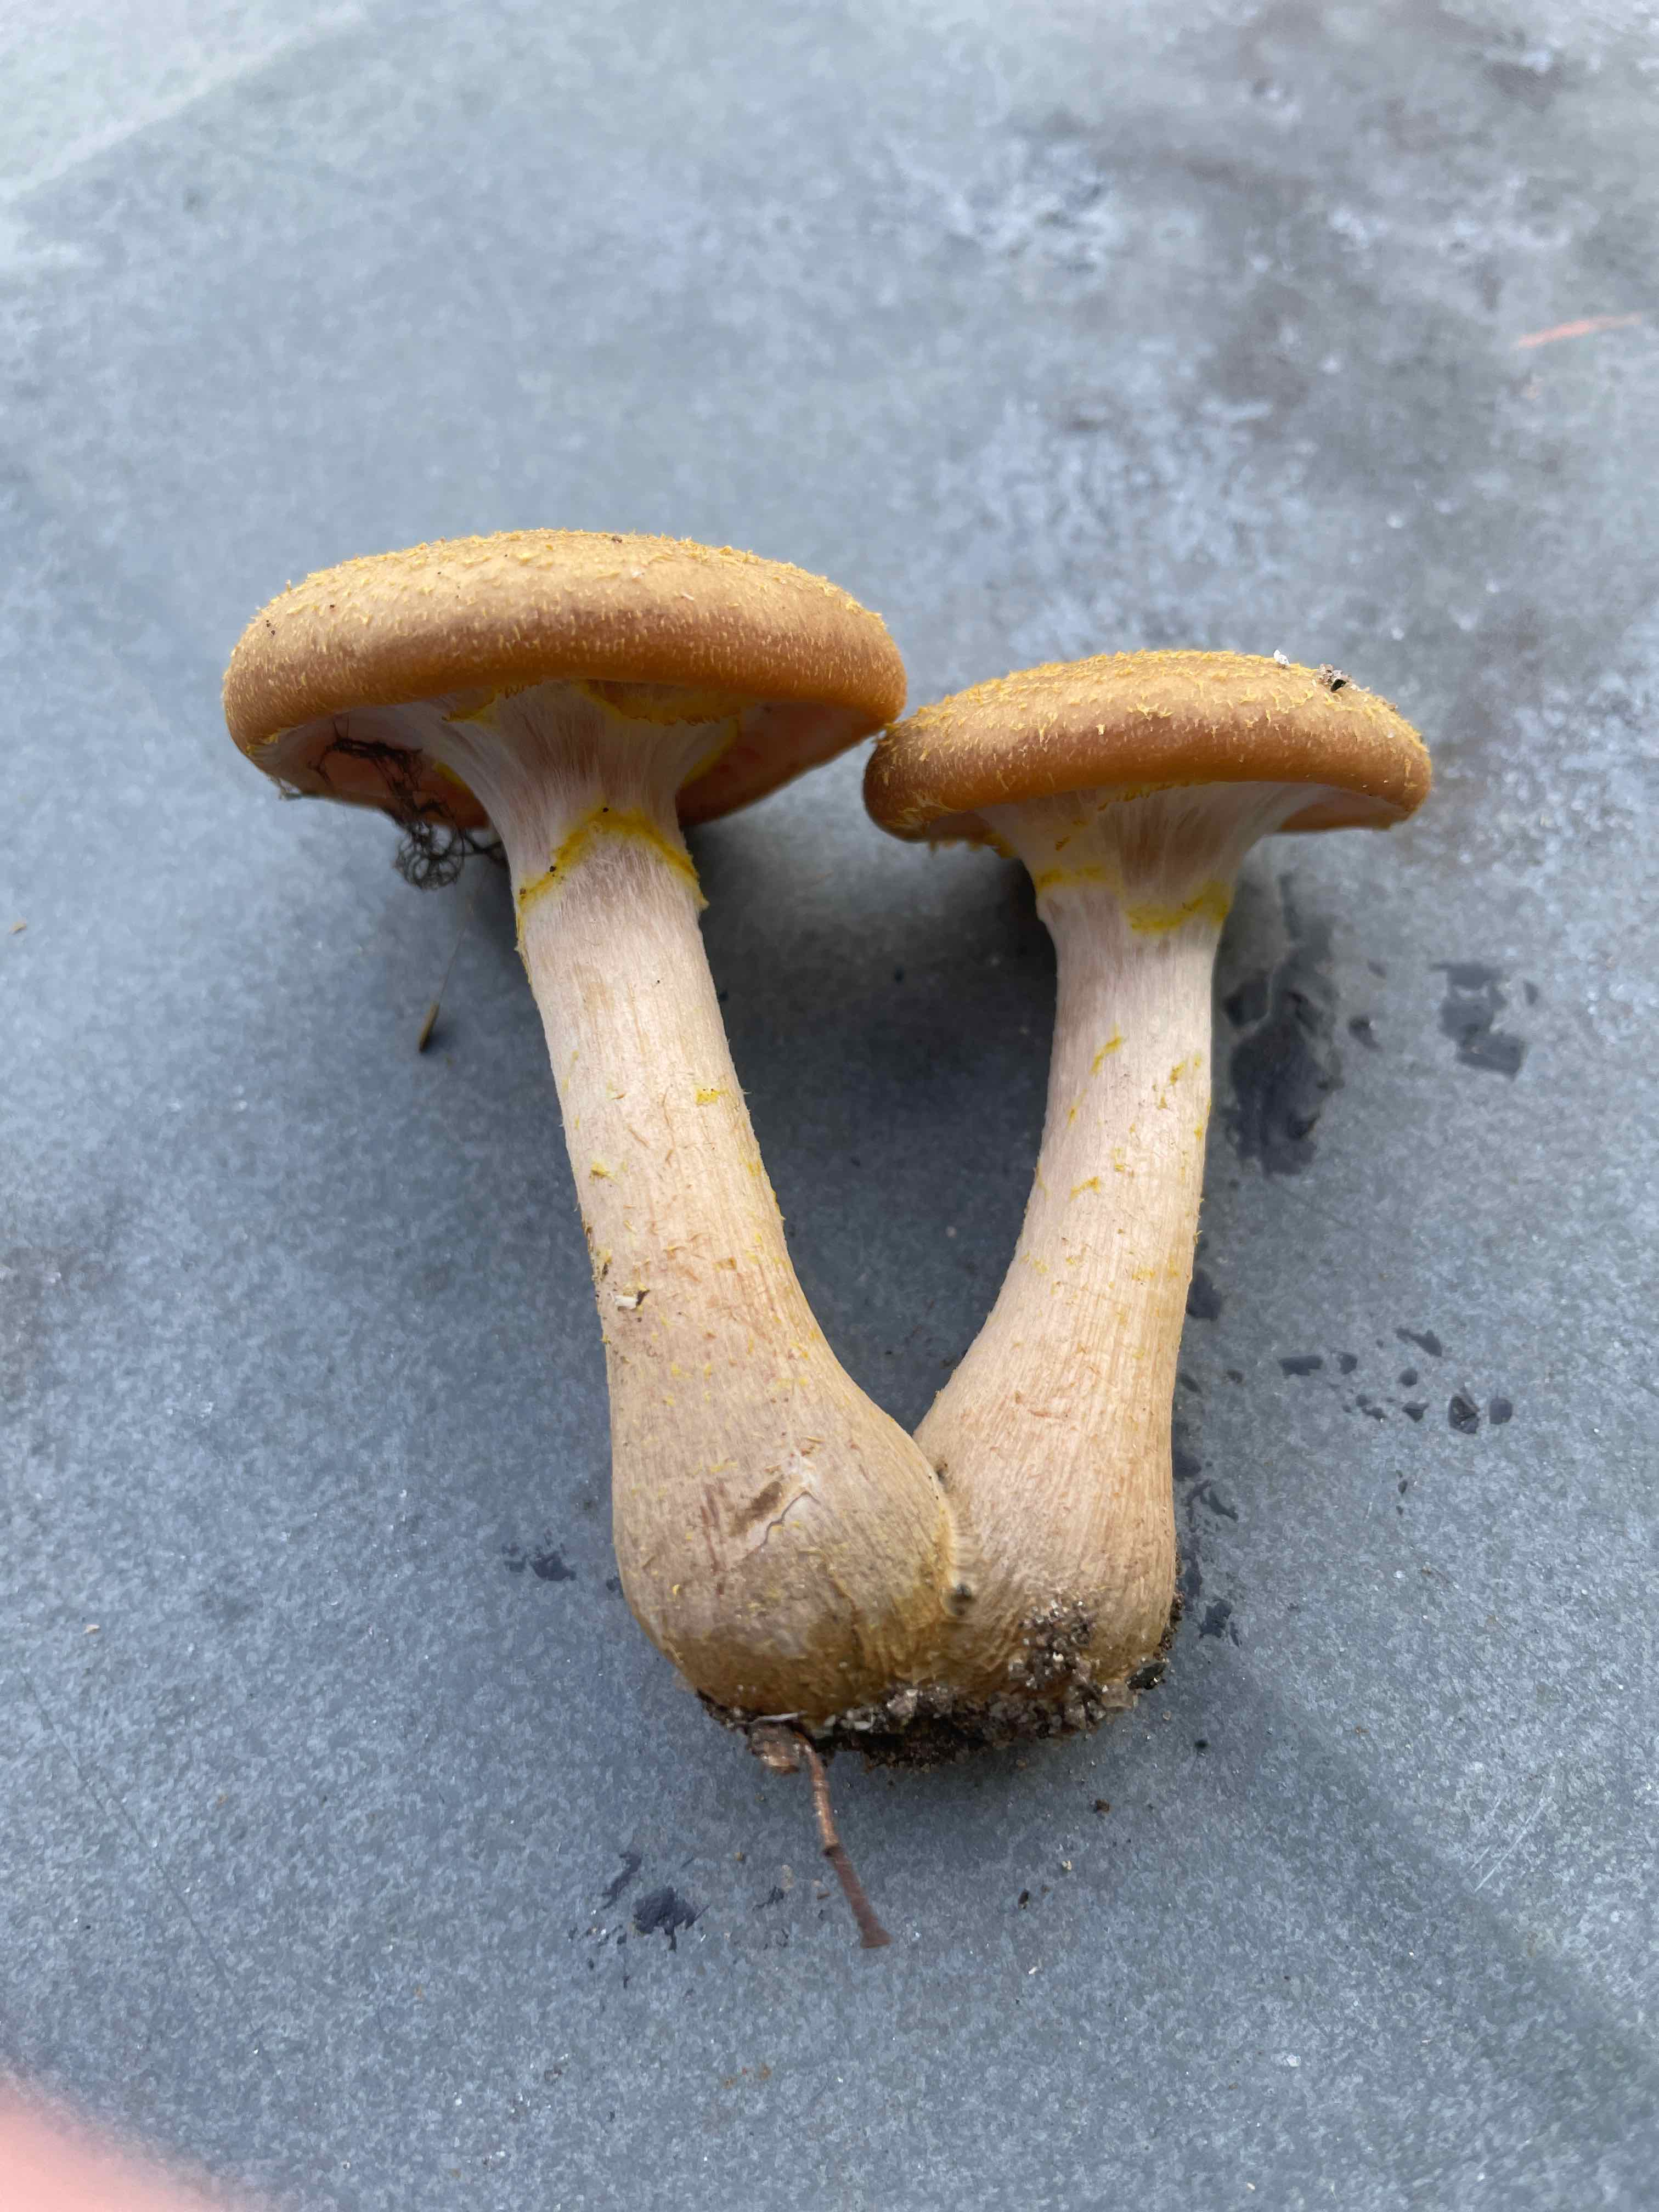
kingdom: Fungi
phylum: Basidiomycota
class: Agaricomycetes
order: Agaricales
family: Physalacriaceae
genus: Armillaria
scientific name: Armillaria lutea
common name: køllestokket honningsvamp
